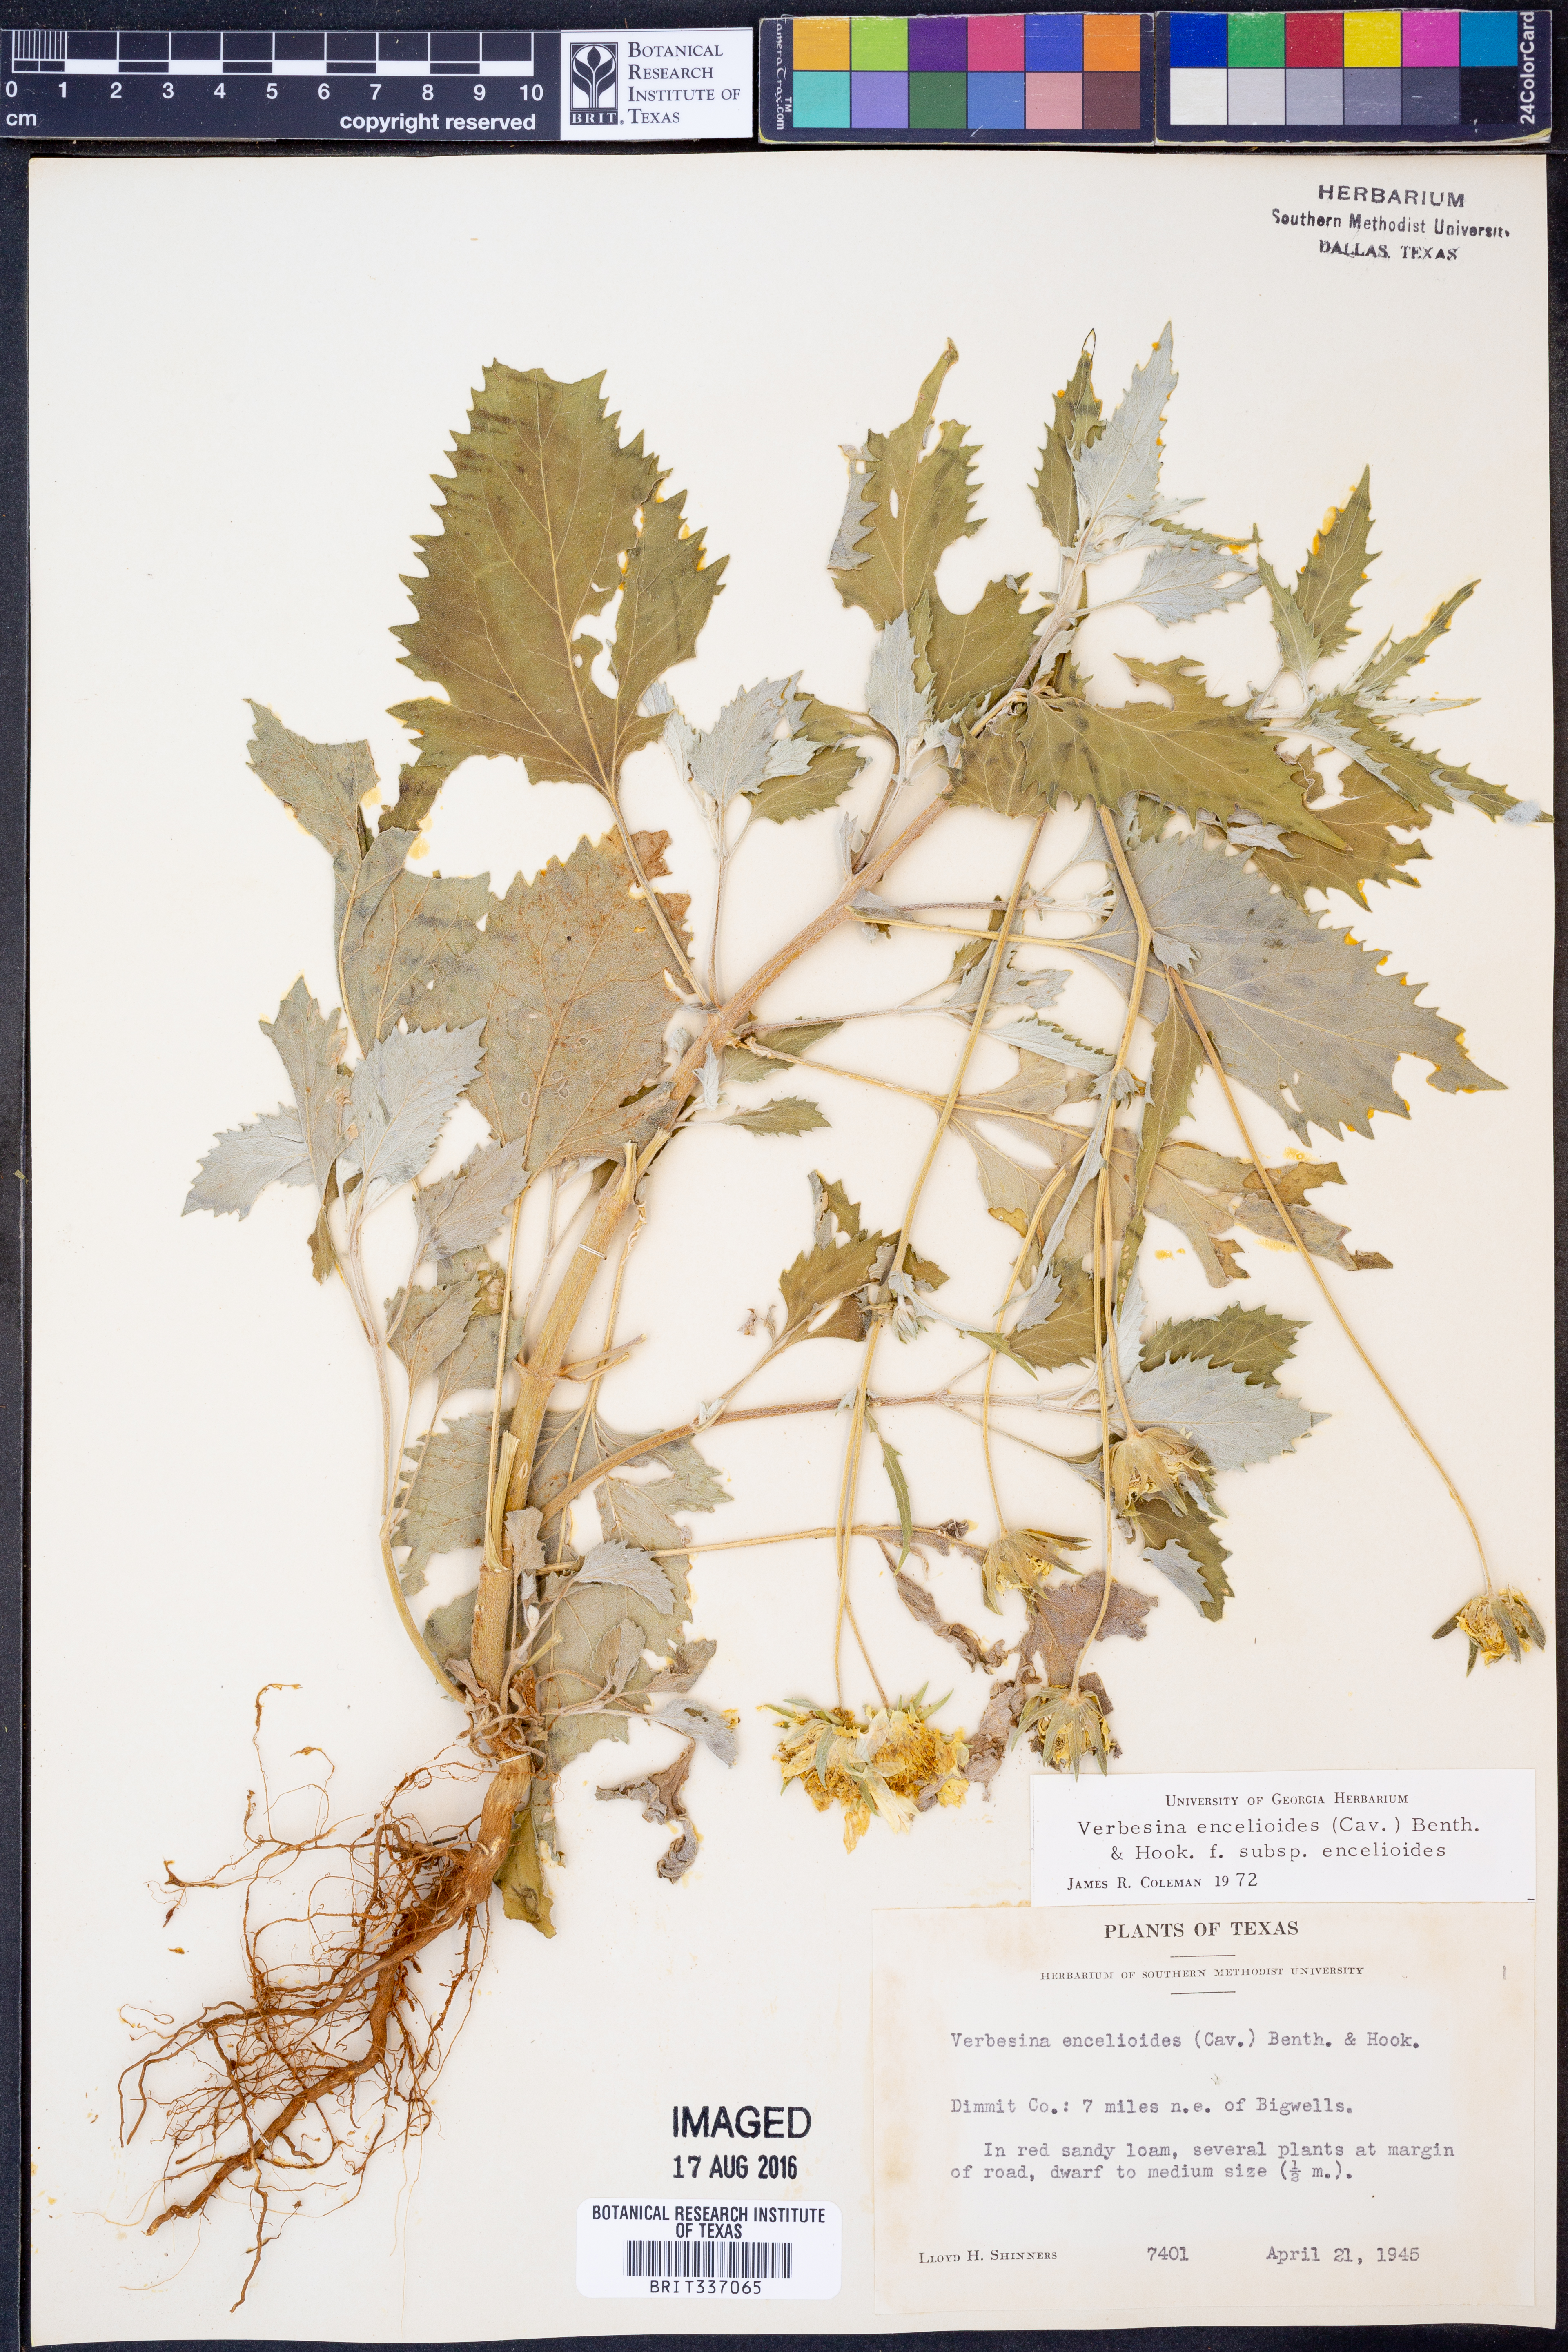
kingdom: Plantae
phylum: Tracheophyta
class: Magnoliopsida
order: Asterales
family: Asteraceae
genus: Verbesina
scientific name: Verbesina encelioides
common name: Golden crownbeard
